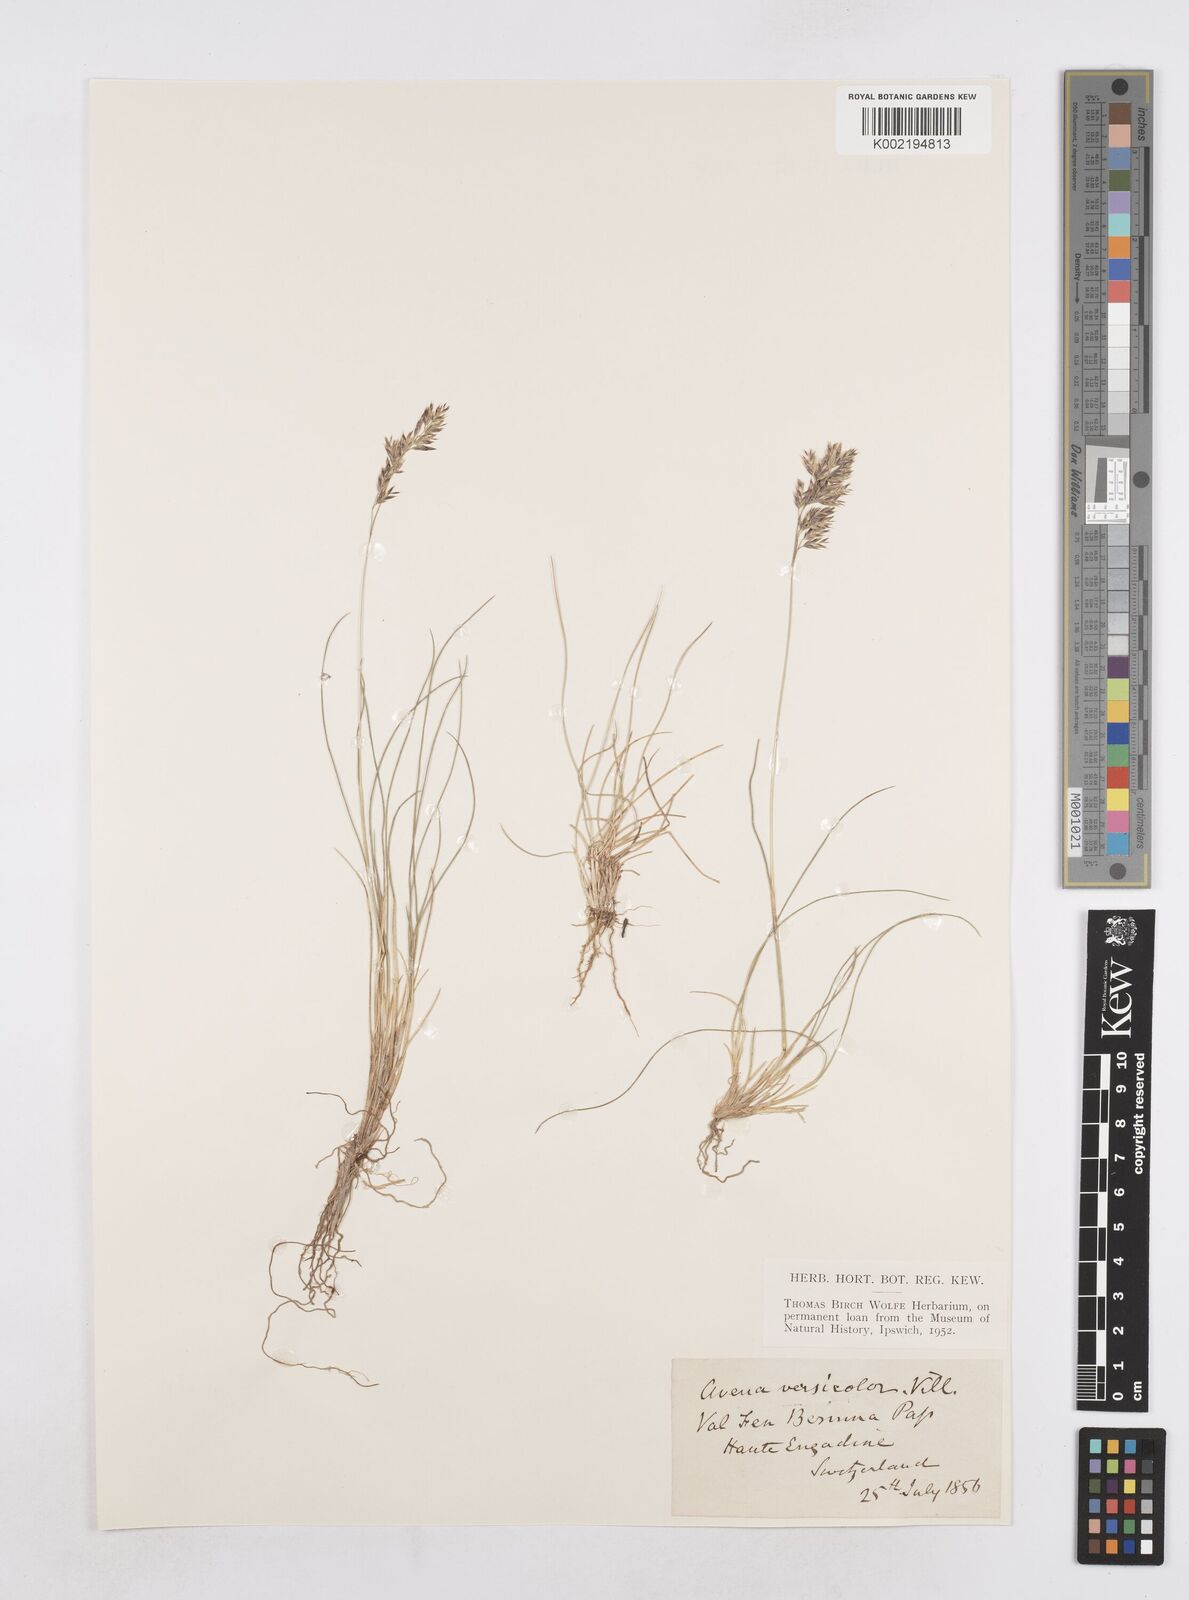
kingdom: Plantae
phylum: Tracheophyta
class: Liliopsida
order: Poales
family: Poaceae
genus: Helictochloa
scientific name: Helictochloa versicolor
